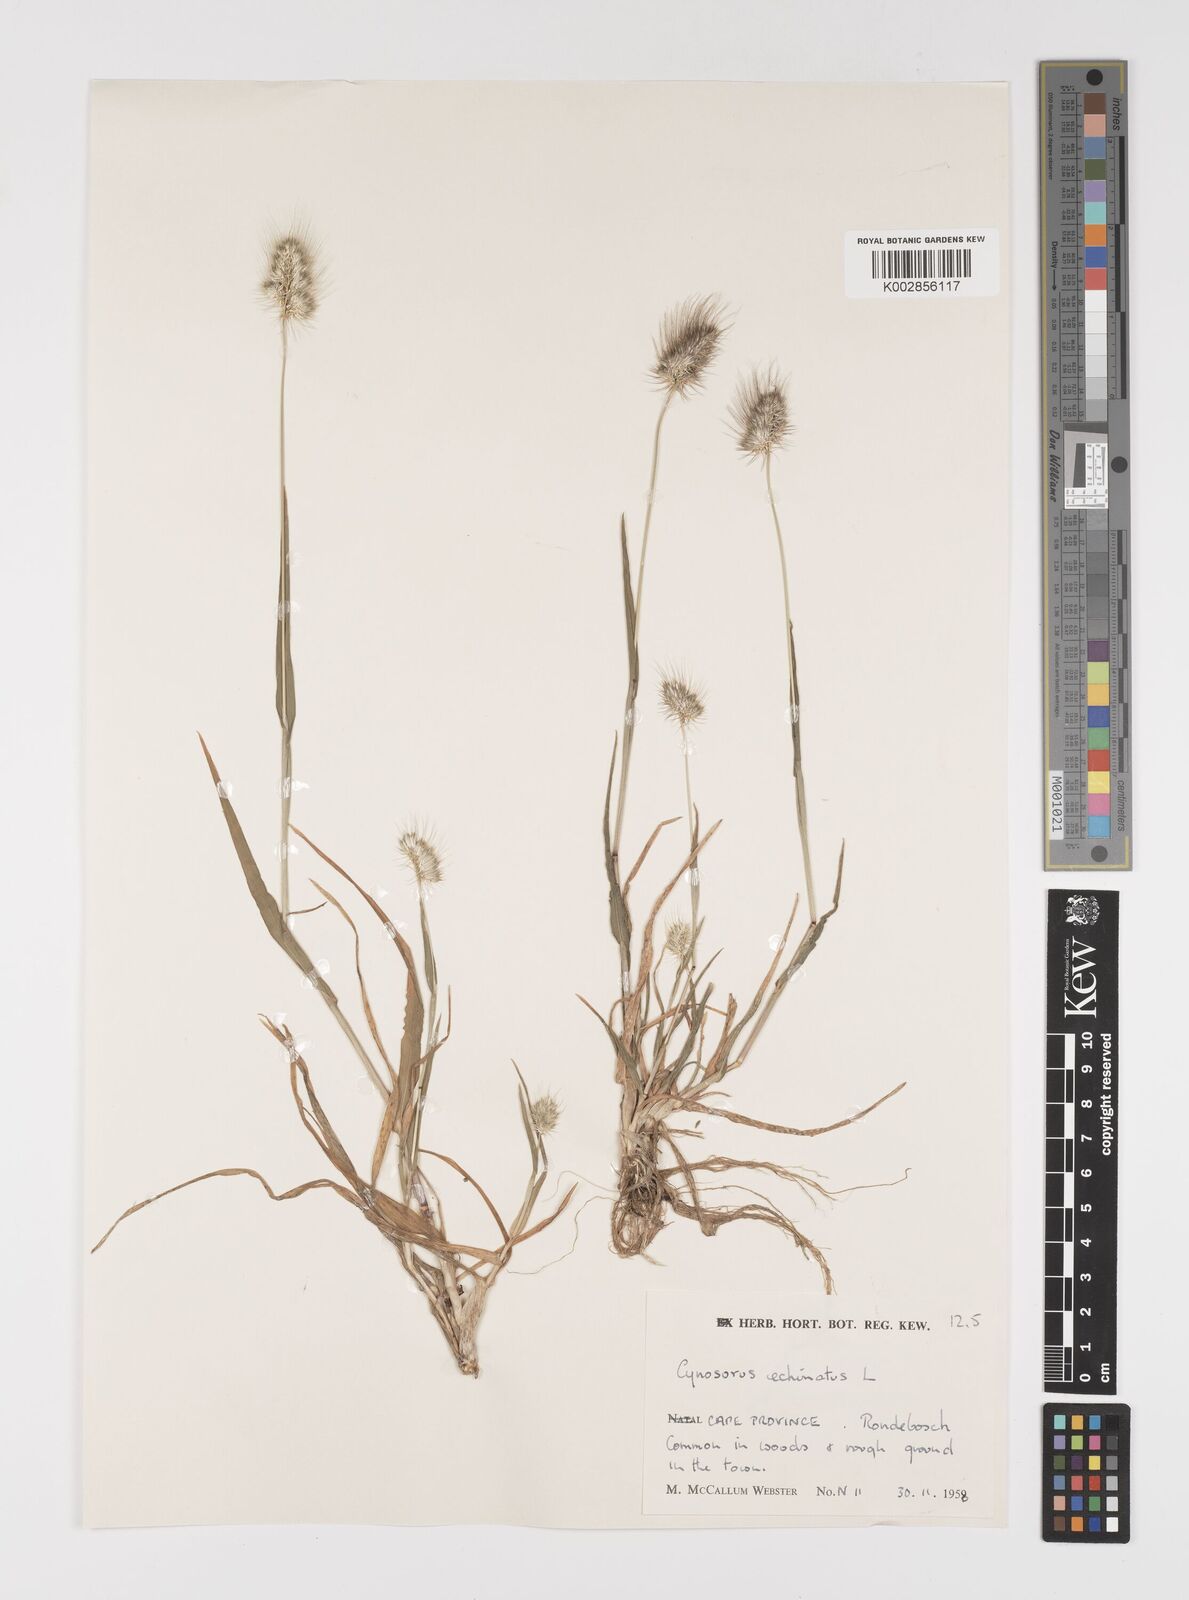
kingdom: Plantae
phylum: Tracheophyta
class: Liliopsida
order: Poales
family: Poaceae
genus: Cynosurus
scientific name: Cynosurus echinatus
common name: Rough dog's-tail
